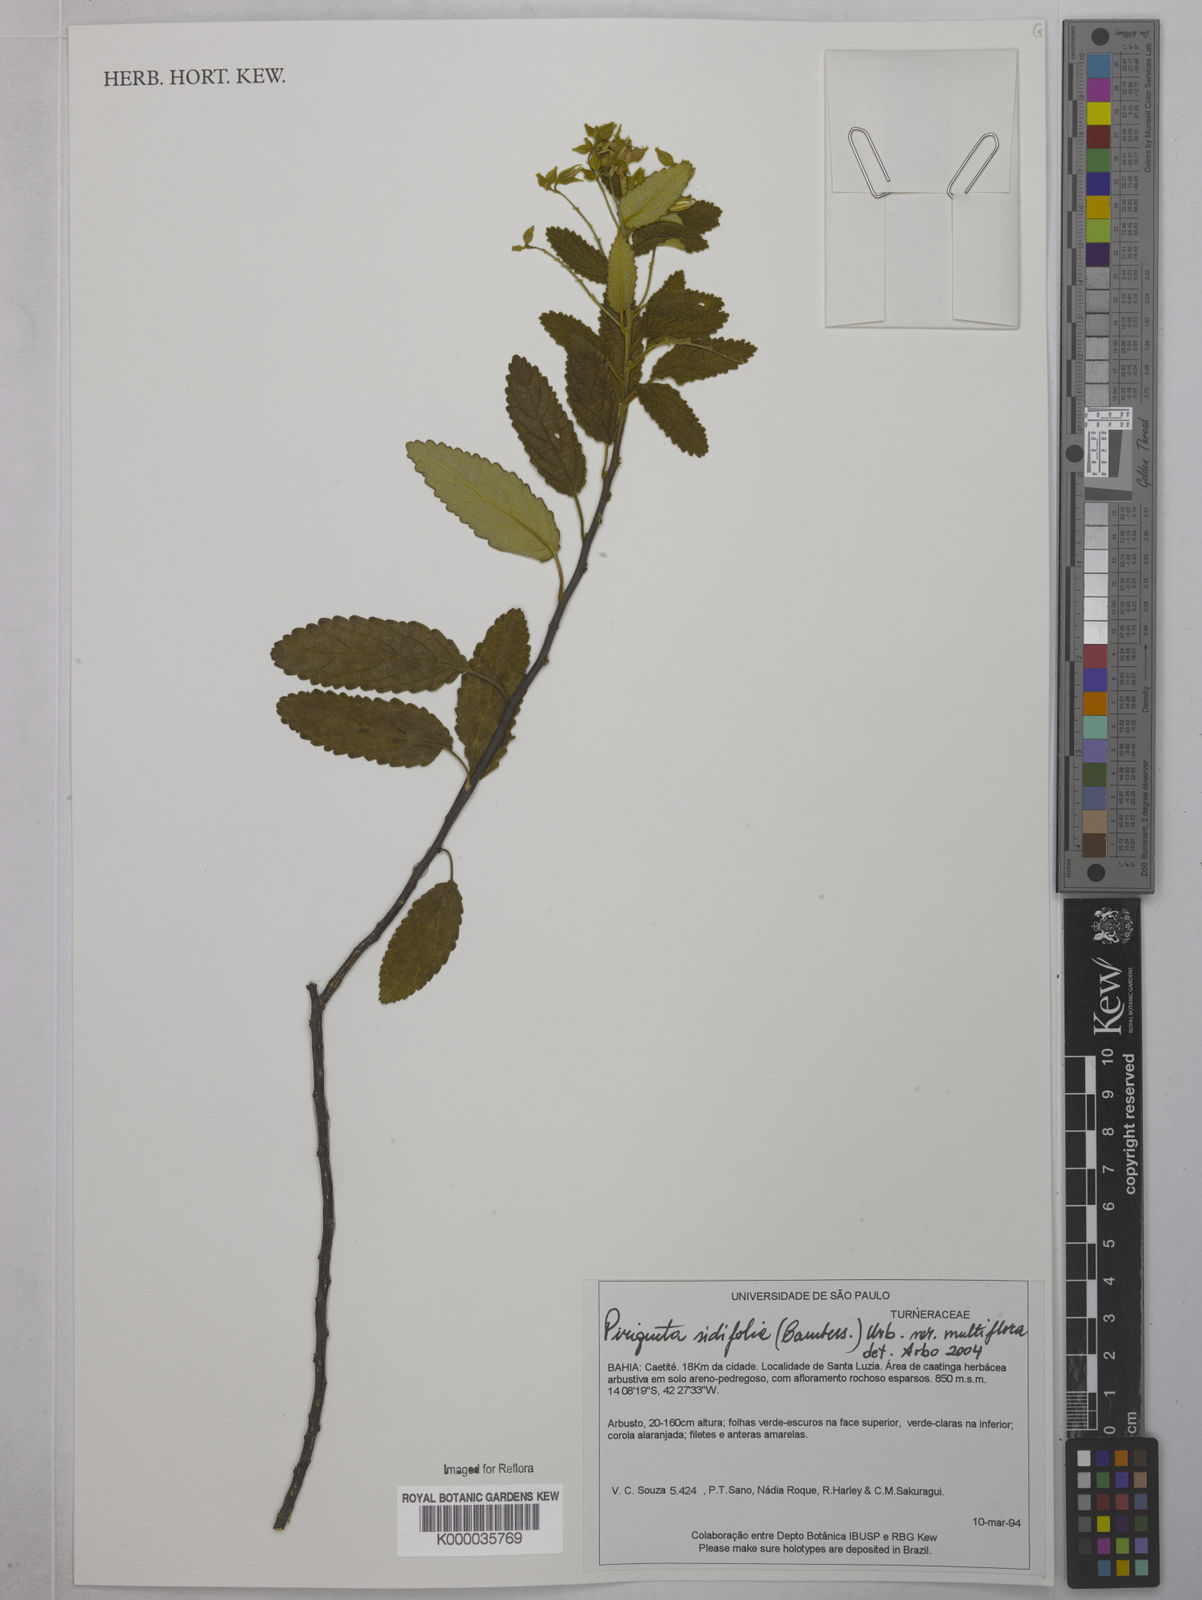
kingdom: Plantae
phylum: Tracheophyta
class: Magnoliopsida
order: Malpighiales
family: Turneraceae
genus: Piriqueta
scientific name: Piriqueta sidifolia
